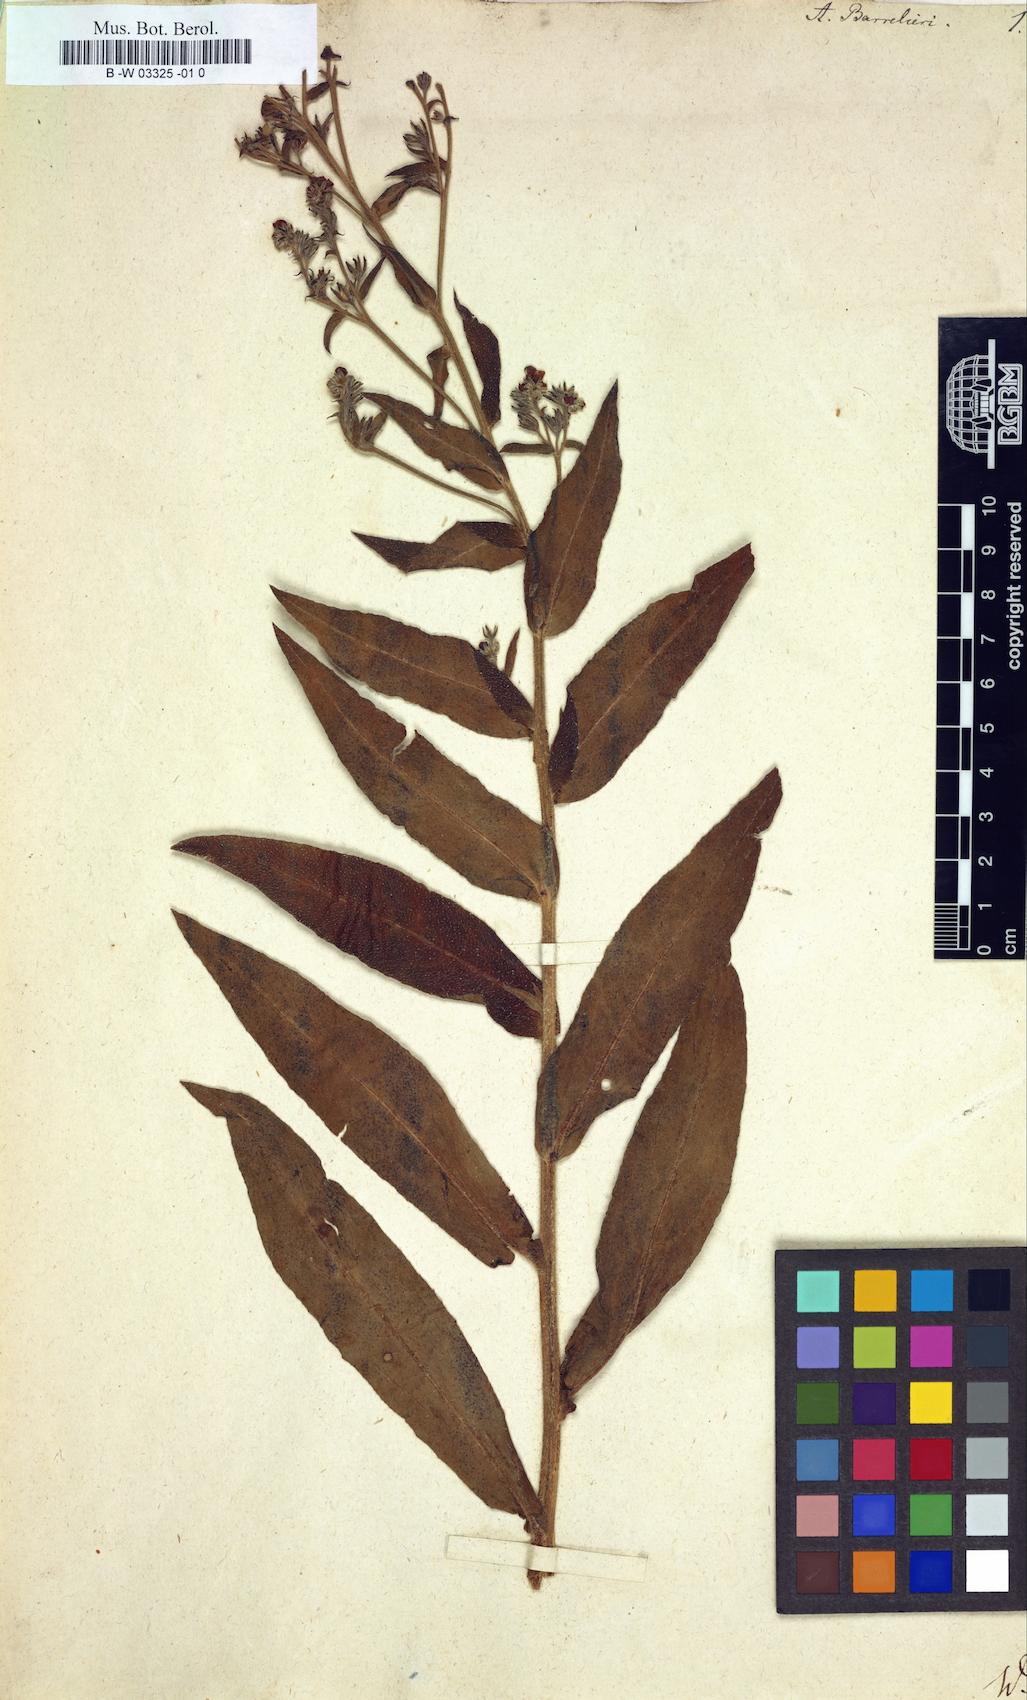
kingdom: Plantae
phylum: Tracheophyta
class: Magnoliopsida
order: Boraginales
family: Boraginaceae
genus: Cynoglottis
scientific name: Cynoglottis barrelieri
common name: False alkanet
